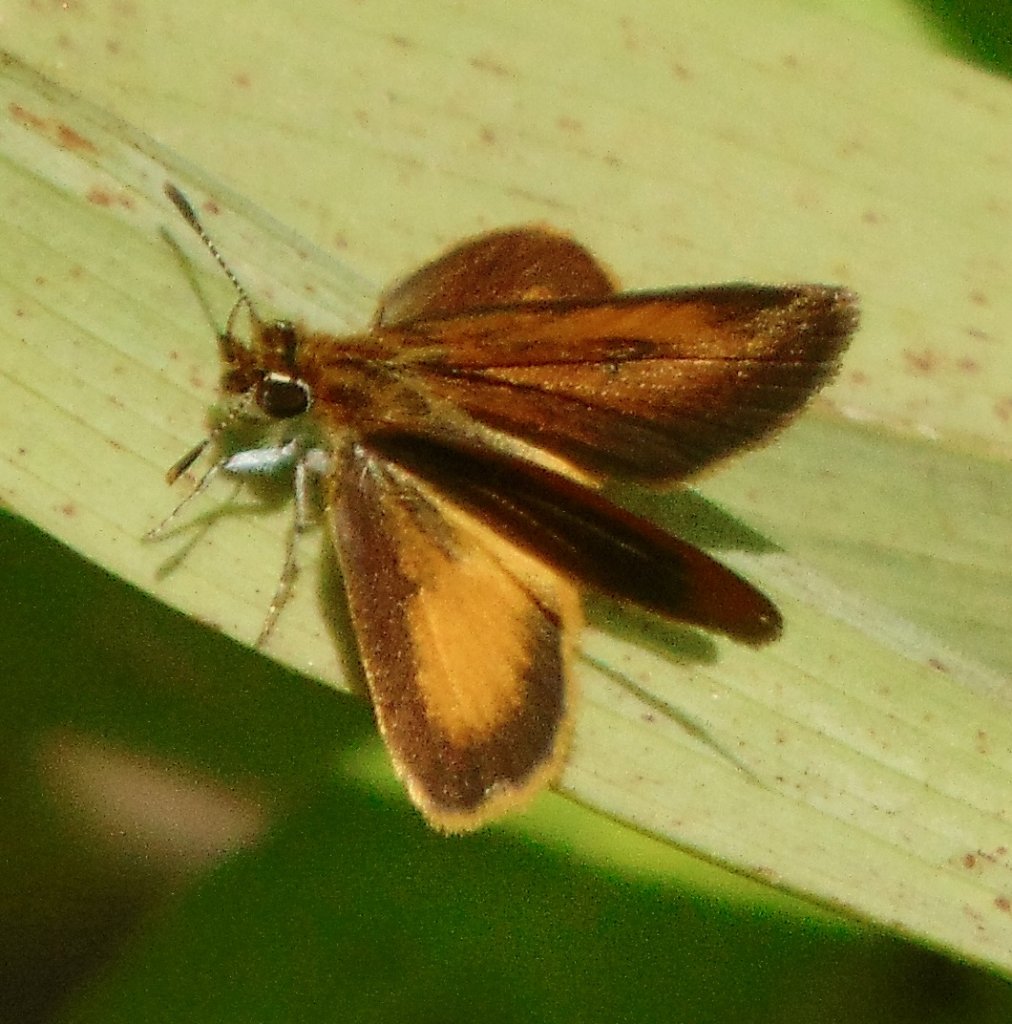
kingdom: Animalia
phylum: Arthropoda
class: Insecta
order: Lepidoptera
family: Hesperiidae
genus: Ancyloxypha
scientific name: Ancyloxypha numitor
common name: Least Skipper
